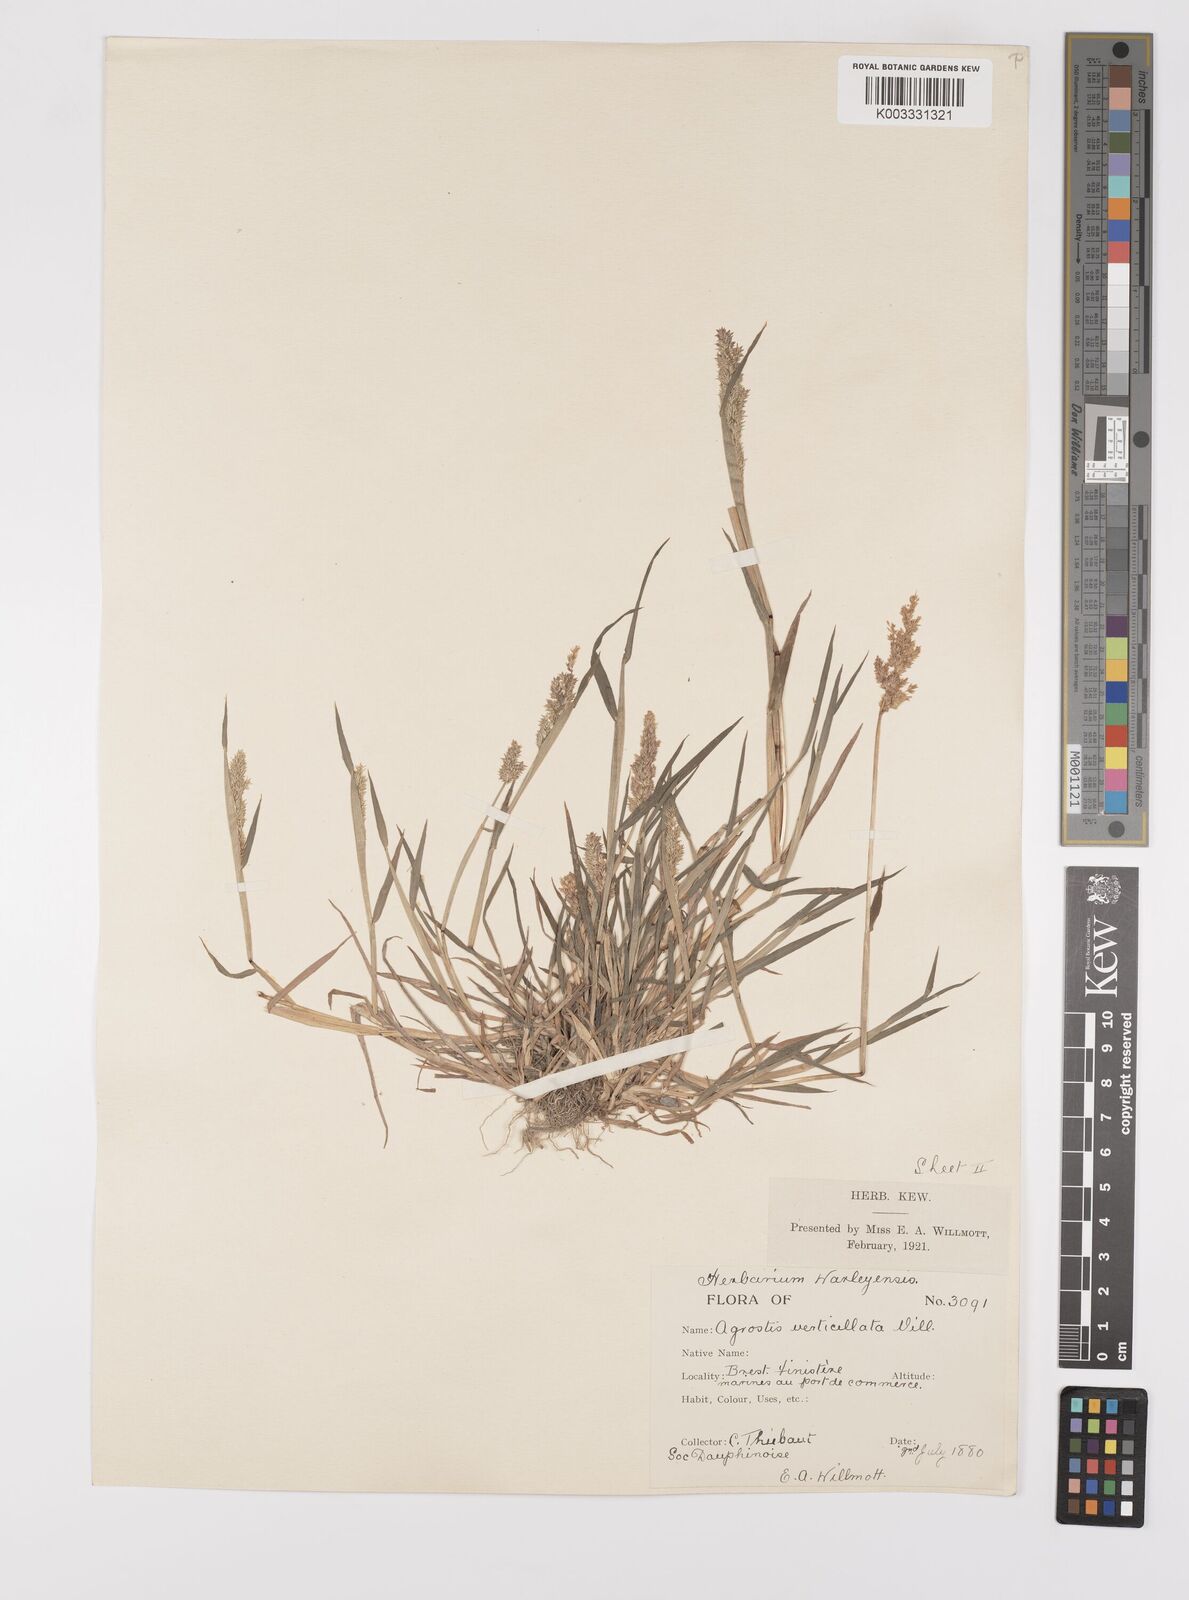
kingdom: Plantae
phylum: Tracheophyta
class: Liliopsida
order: Poales
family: Poaceae
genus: Polypogon
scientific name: Polypogon viridis
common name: Water bent
